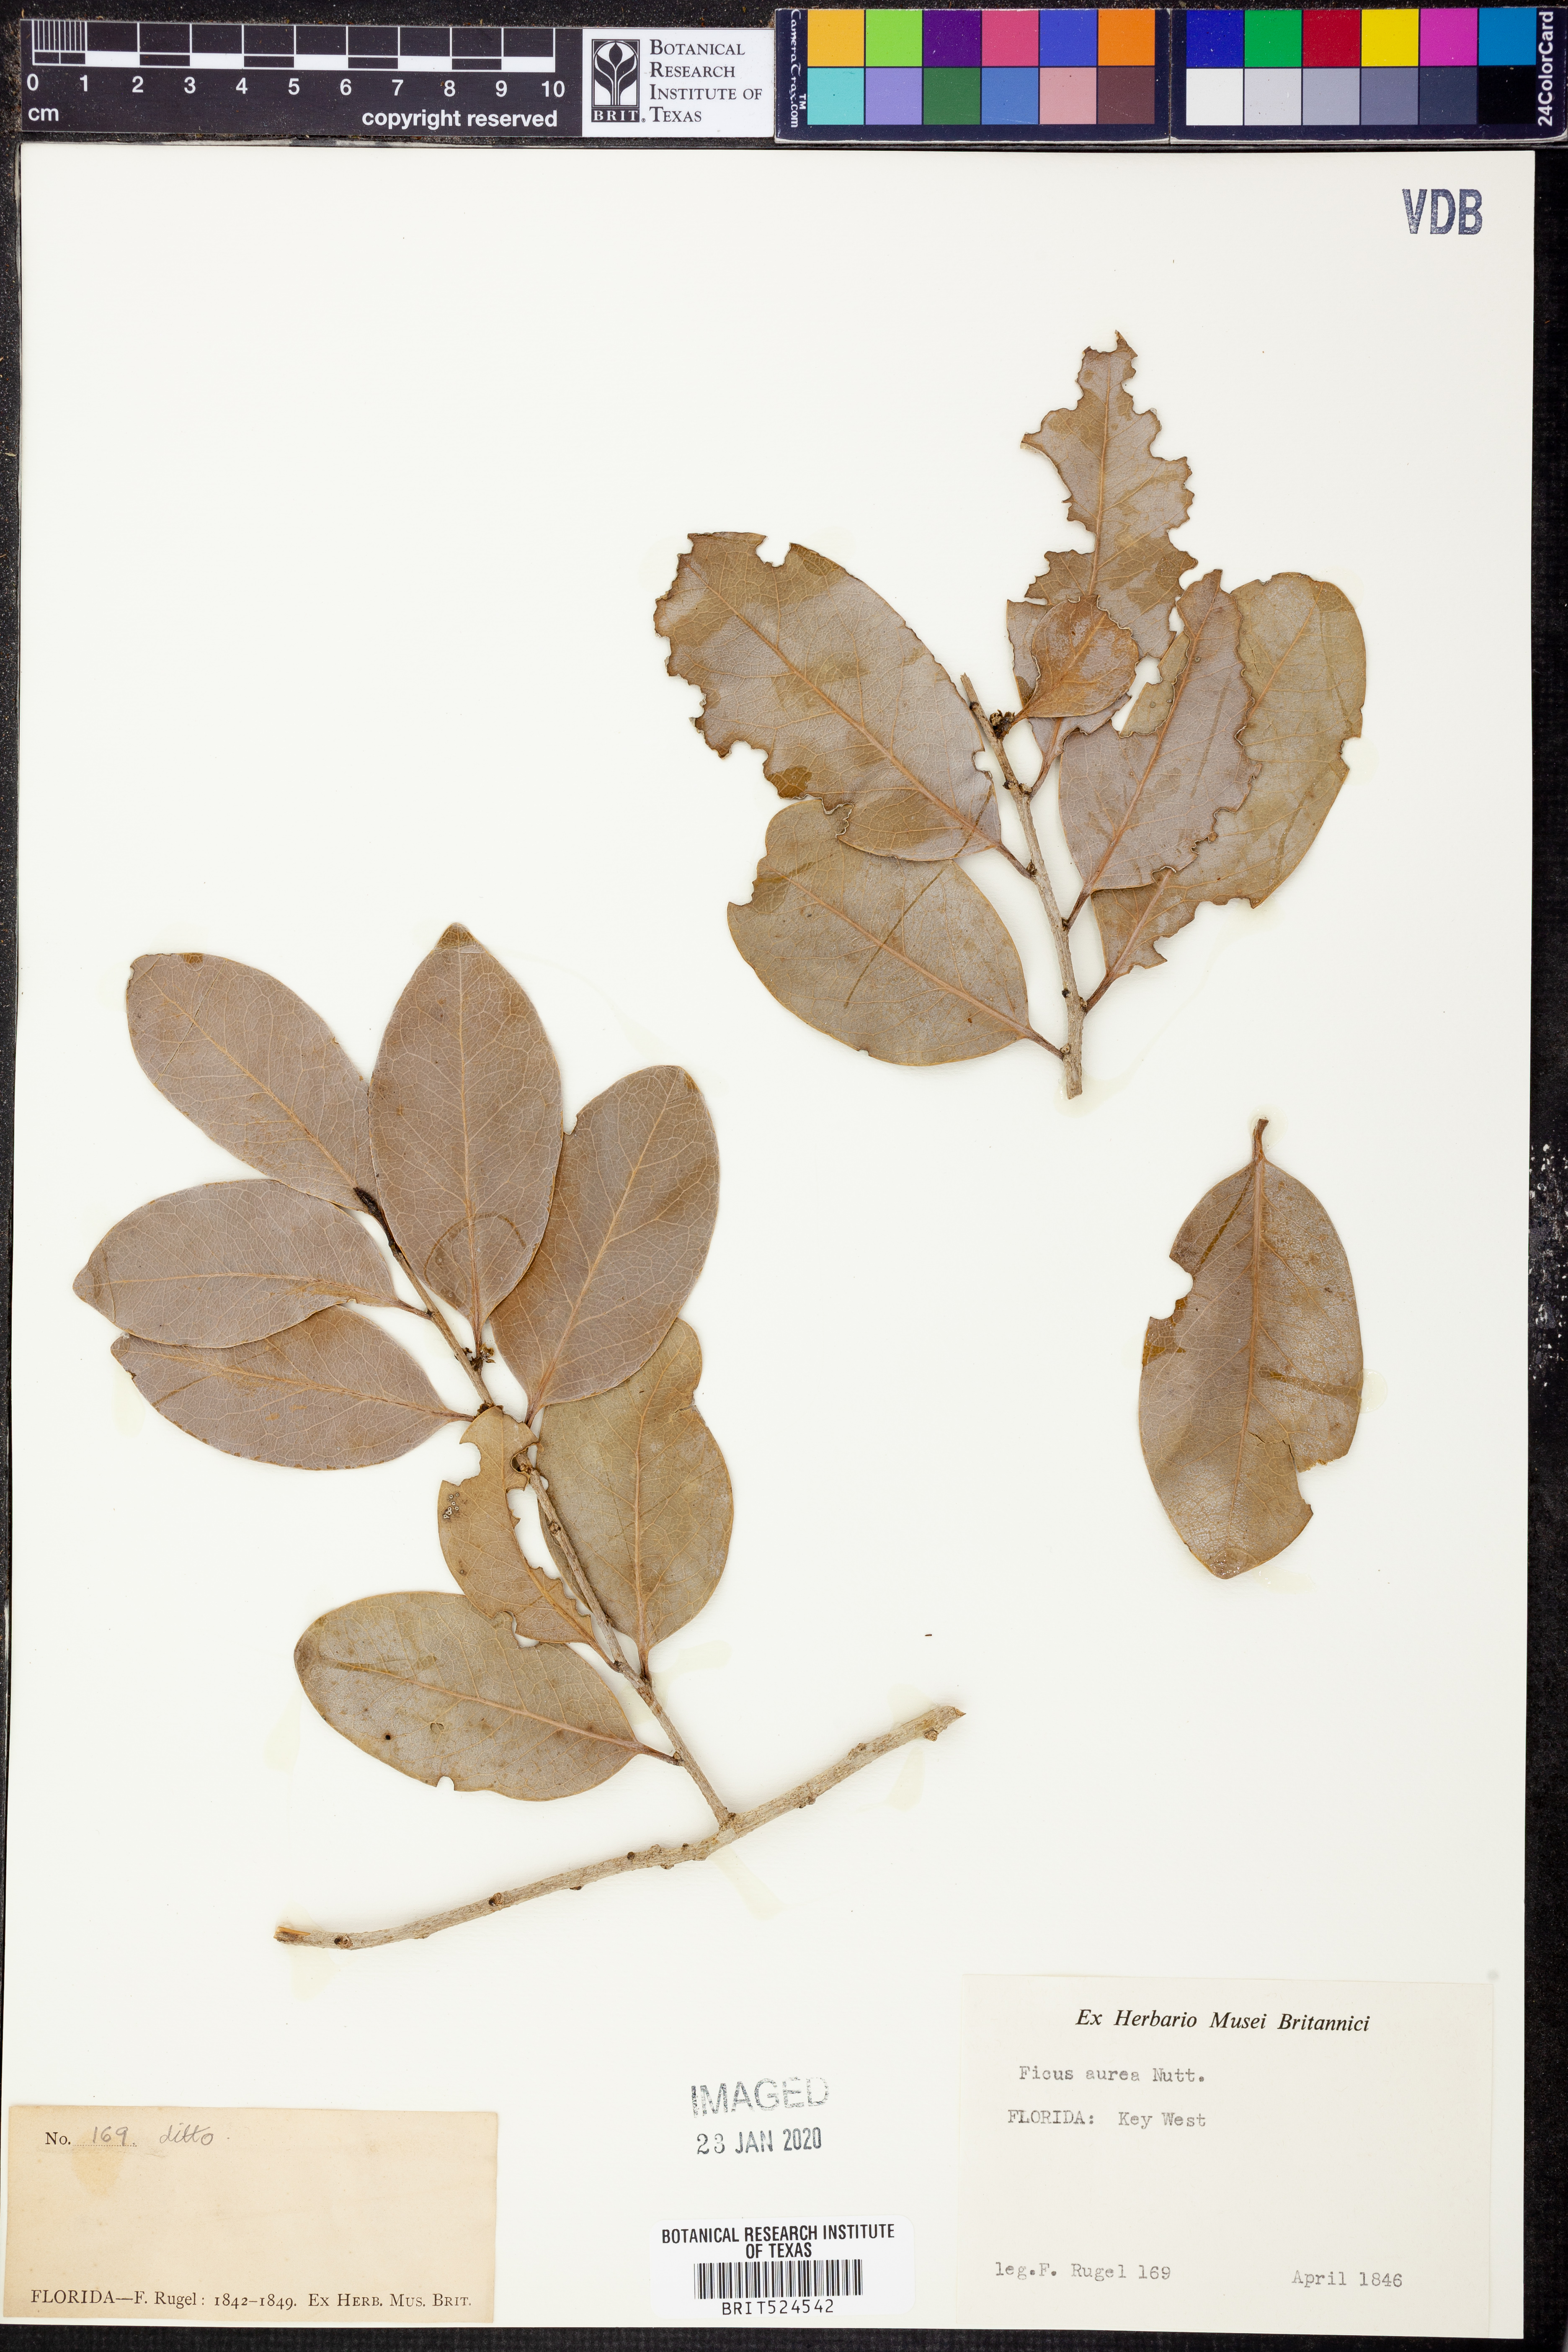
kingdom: Plantae
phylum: Tracheophyta
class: Magnoliopsida
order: Rosales
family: Moraceae
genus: Ficus
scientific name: Ficus aurea
